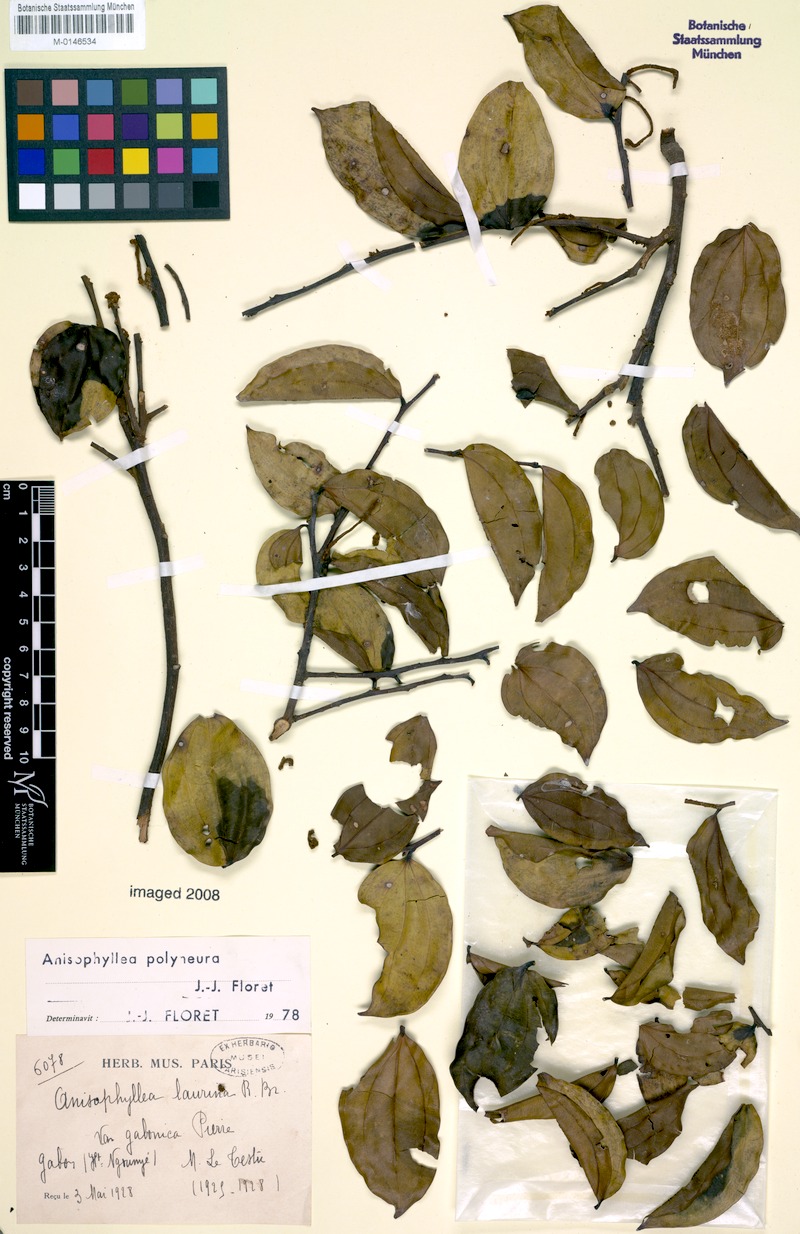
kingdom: Plantae
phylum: Tracheophyta
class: Magnoliopsida
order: Cucurbitales
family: Anisophylleaceae
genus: Anisophyllea
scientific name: Anisophyllea polyneura
